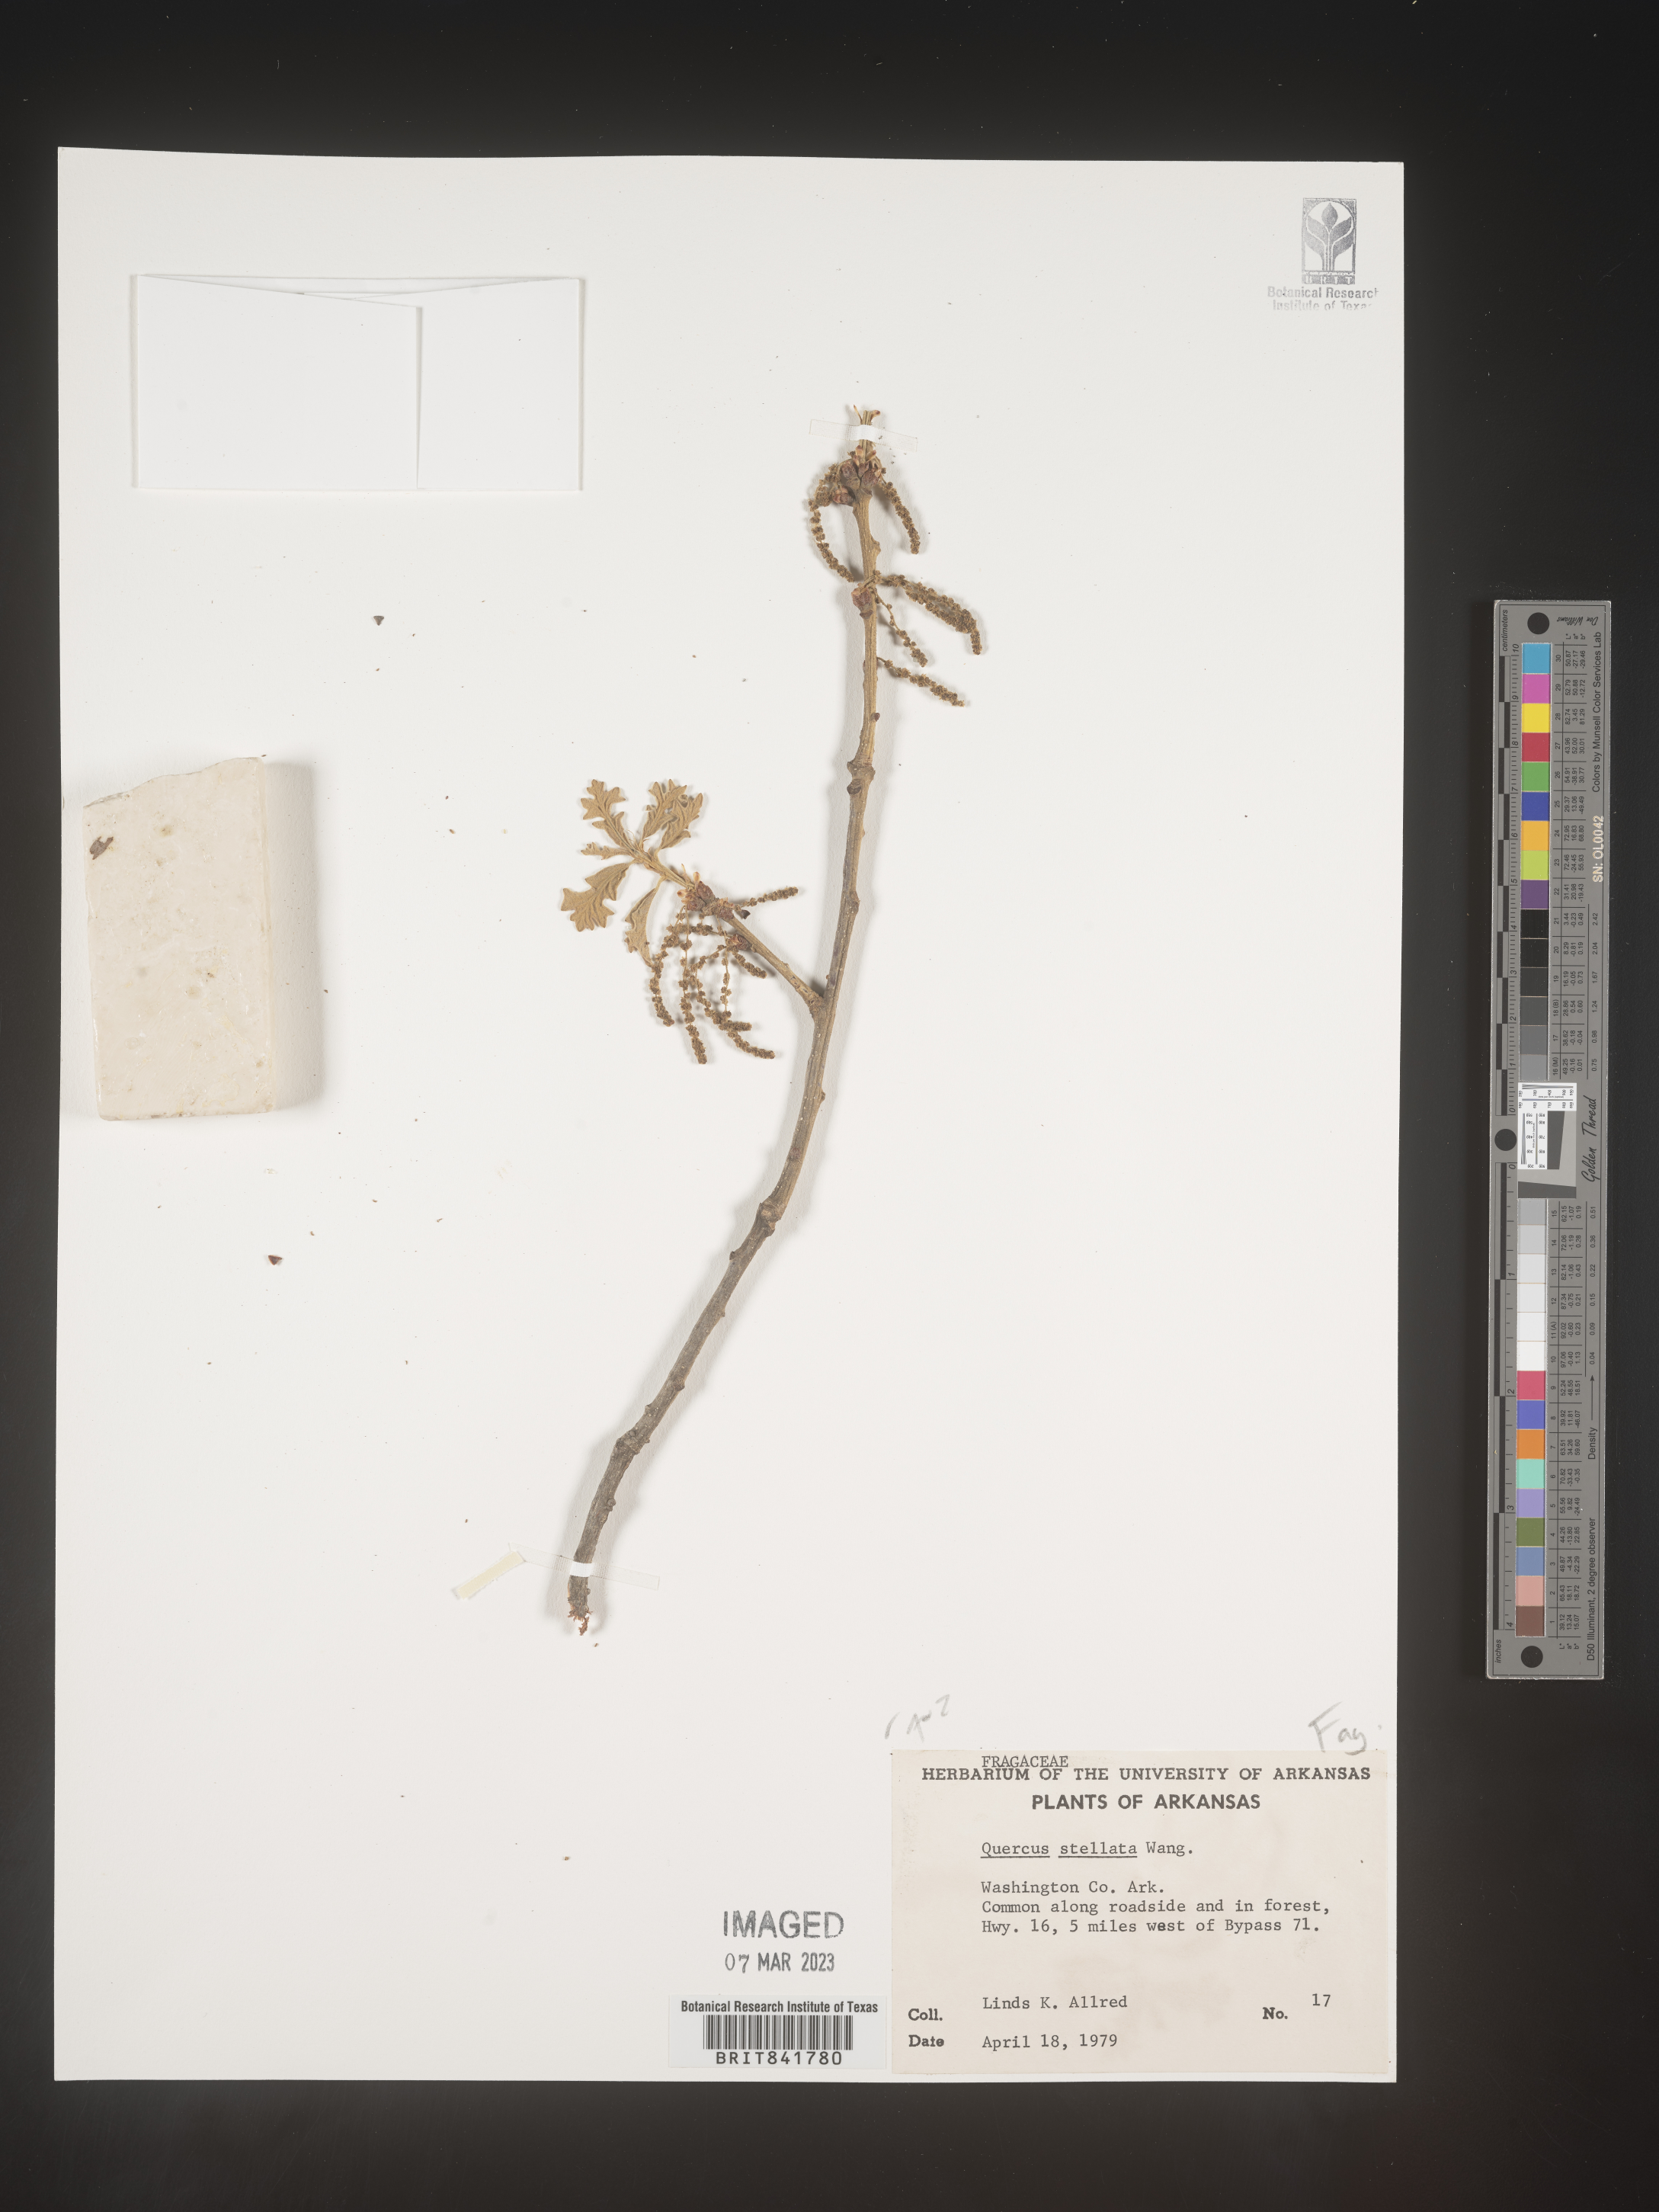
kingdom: Plantae
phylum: Tracheophyta
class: Magnoliopsida
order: Fagales
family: Fagaceae
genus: Quercus
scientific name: Quercus stellata
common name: Post oak
